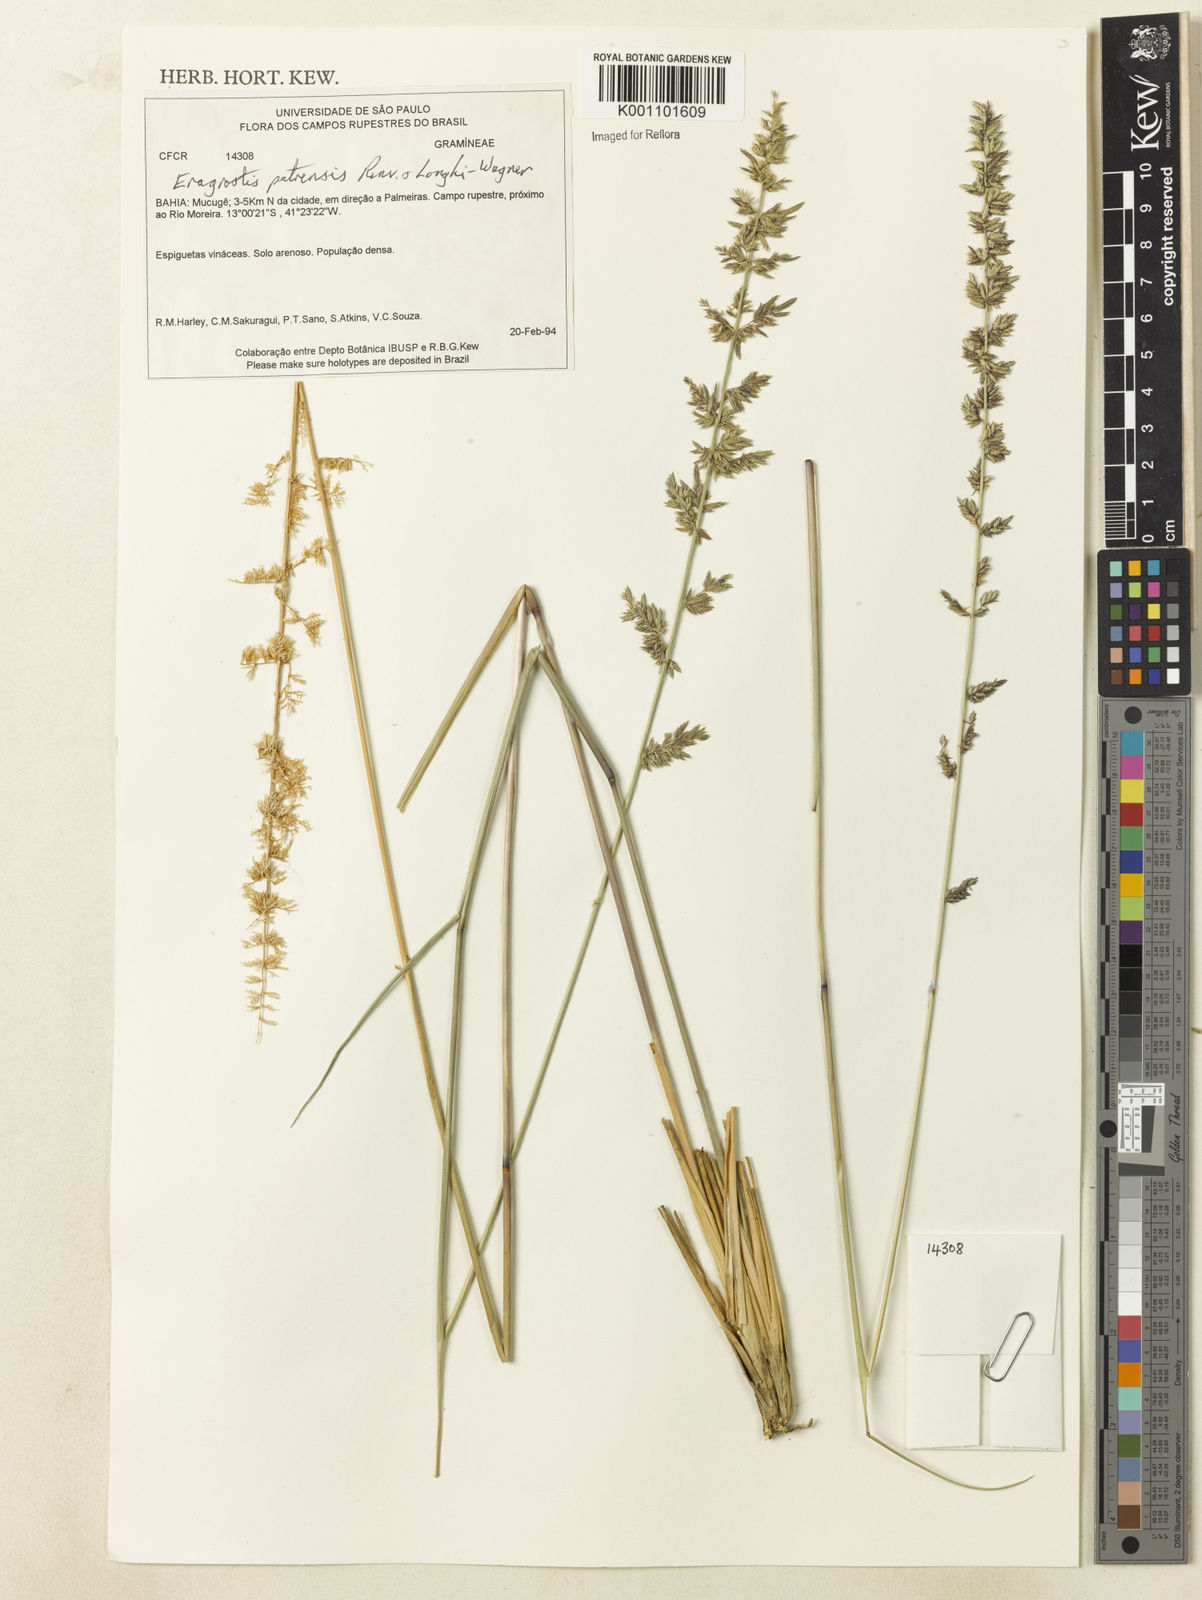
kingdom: Plantae
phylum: Tracheophyta
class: Liliopsida
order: Poales
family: Poaceae
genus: Eragrostis
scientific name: Eragrostis petrensis
